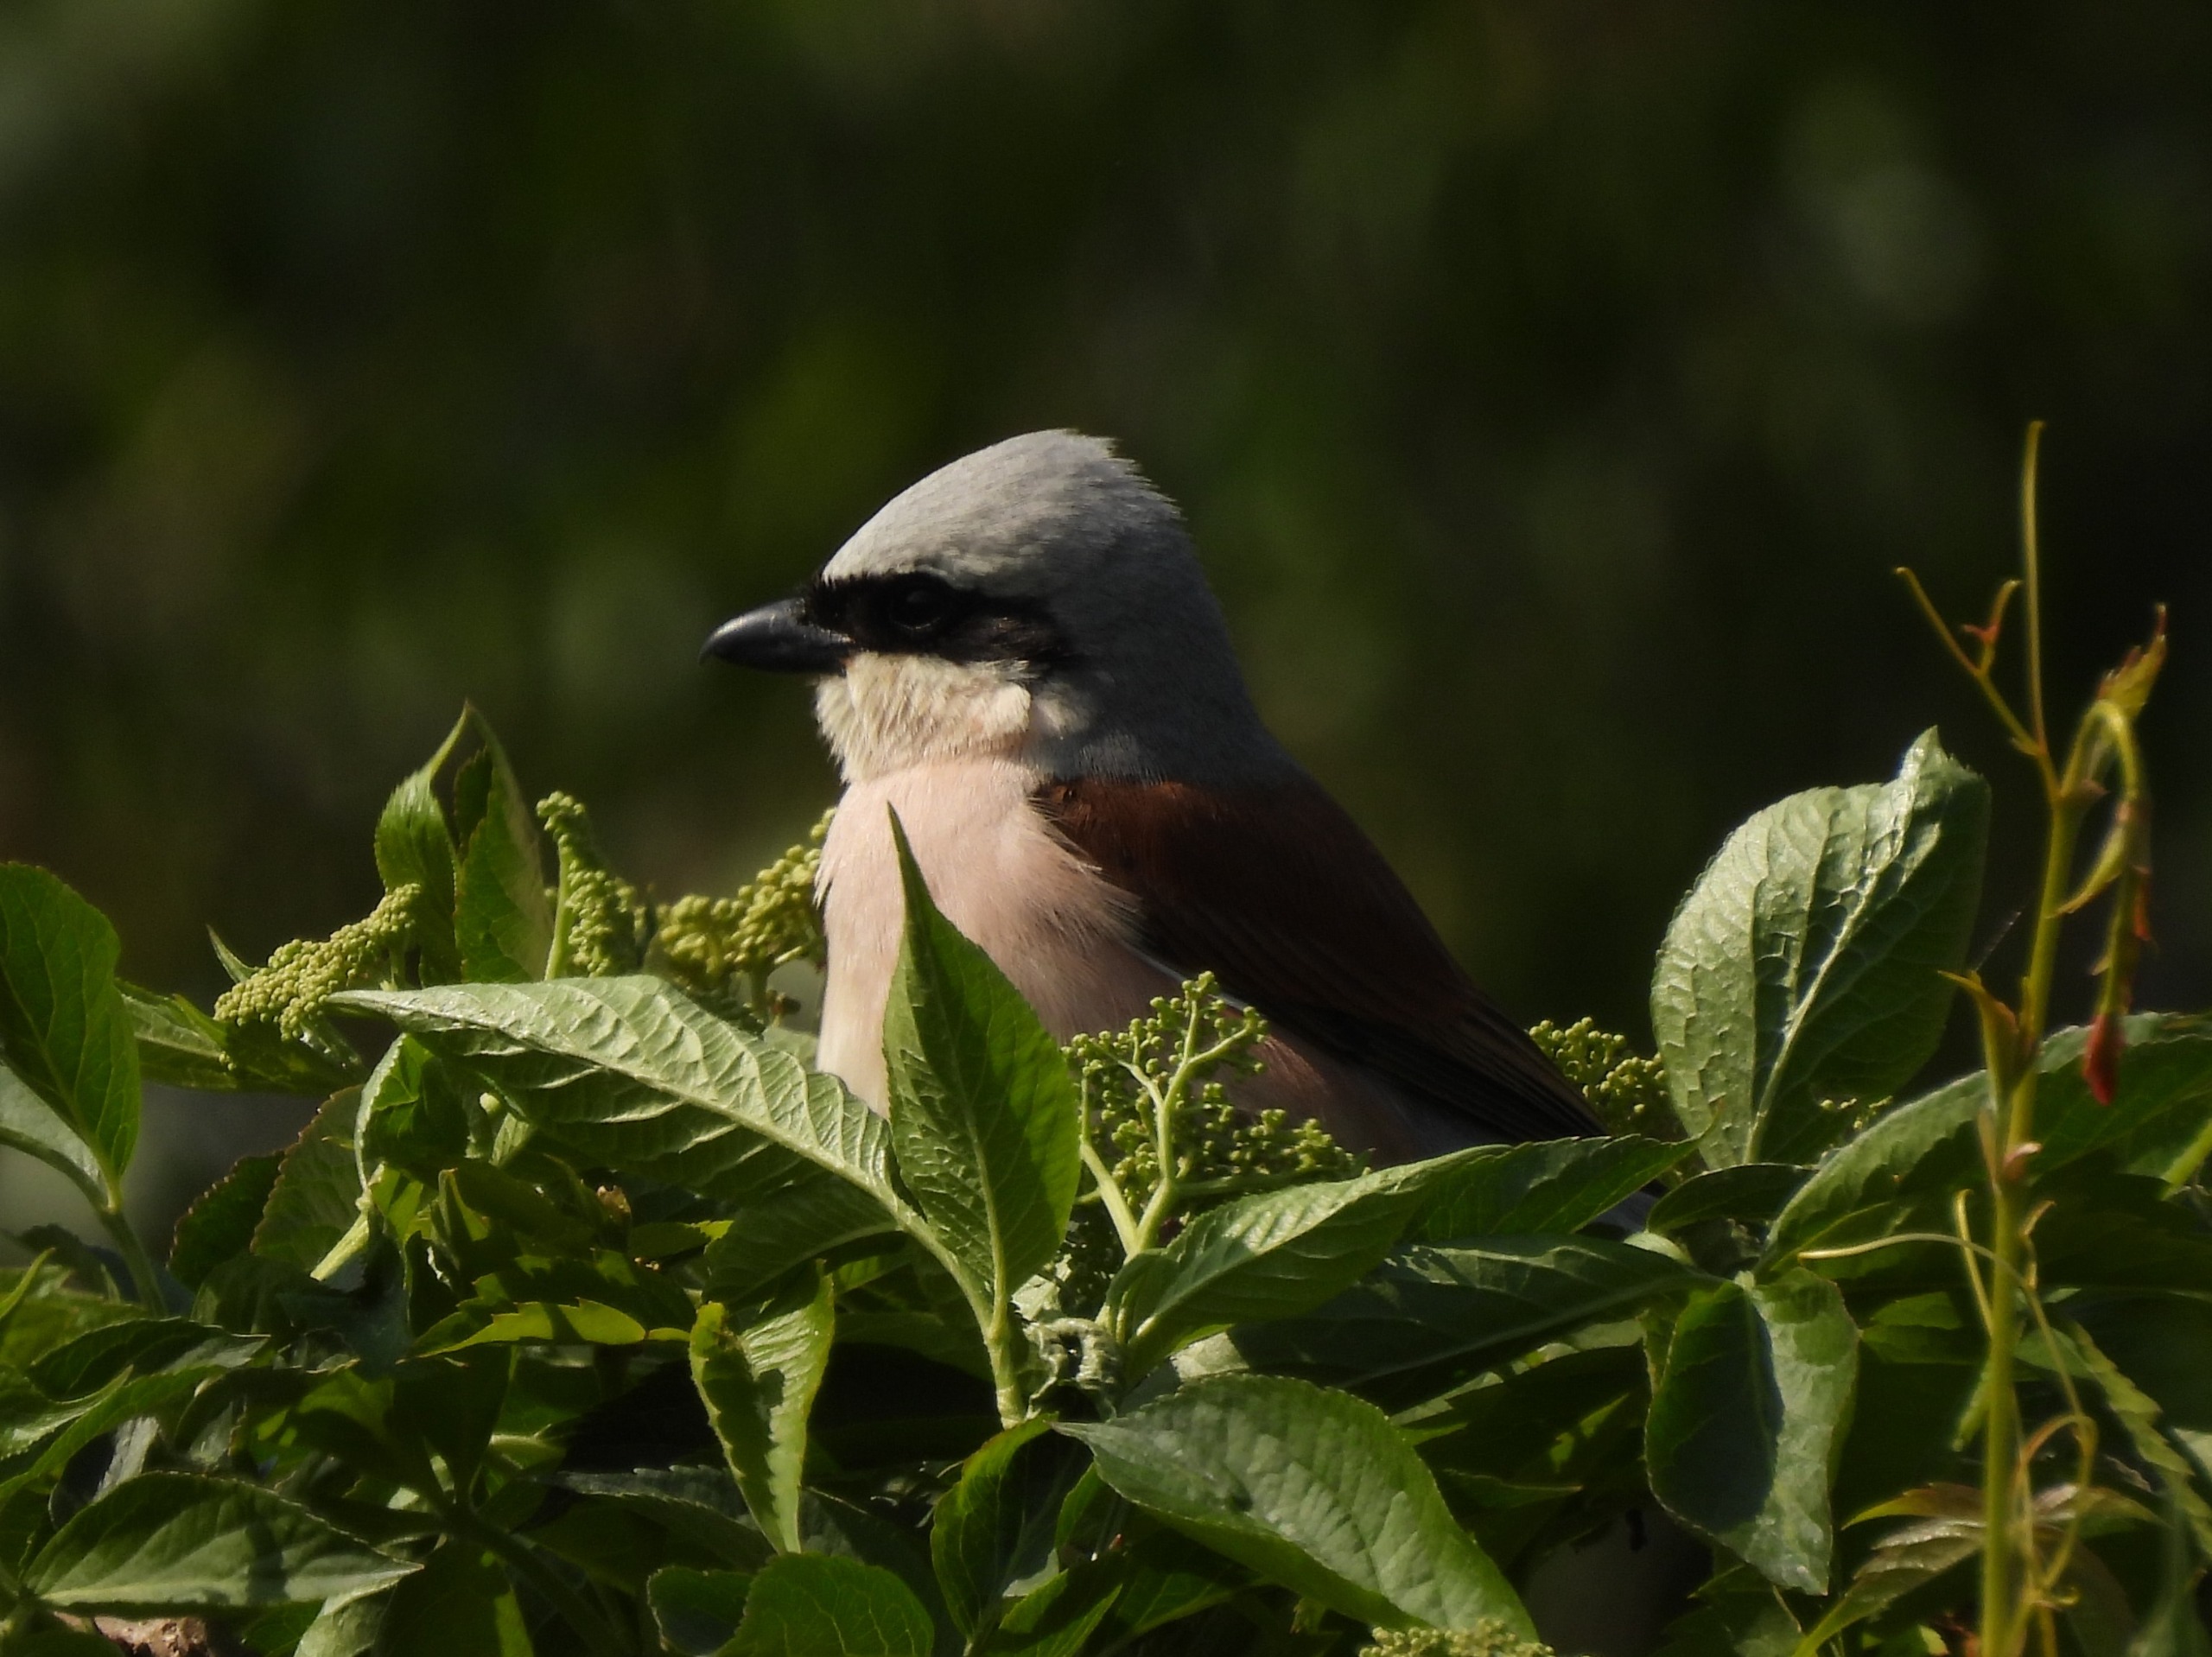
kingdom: Animalia
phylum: Chordata
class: Aves
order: Passeriformes
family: Laniidae
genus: Lanius
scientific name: Lanius collurio
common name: Rødrygget tornskade
